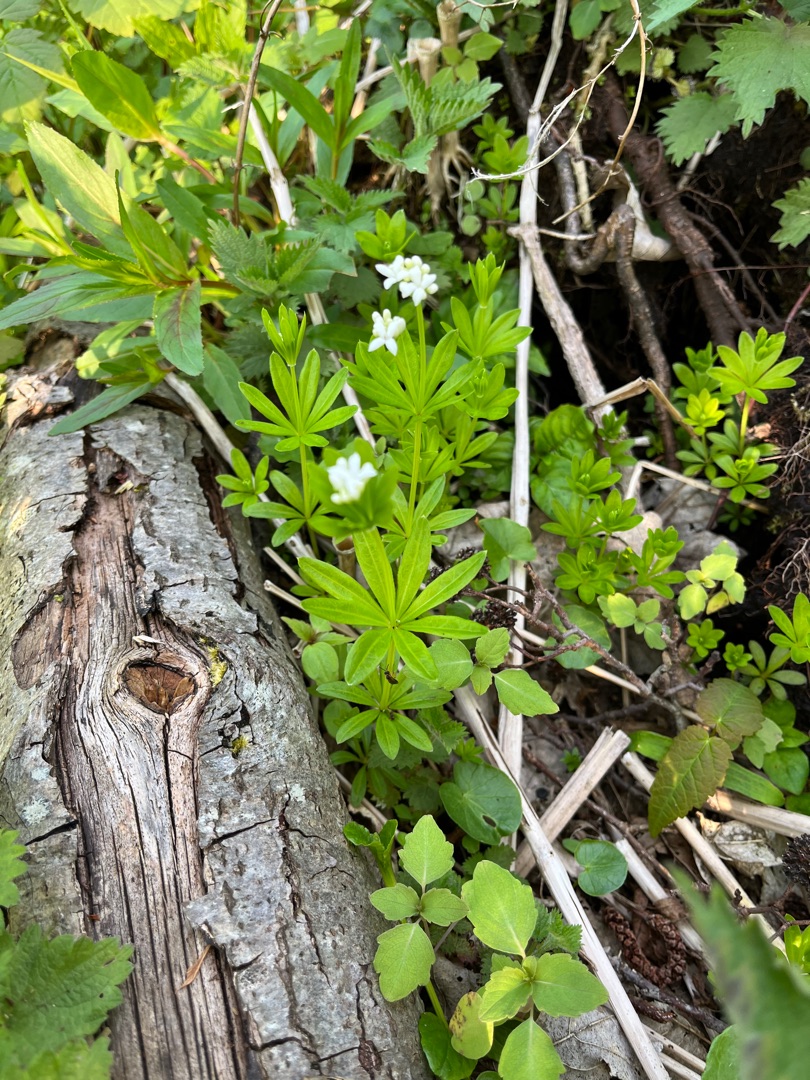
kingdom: Plantae
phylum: Tracheophyta
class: Magnoliopsida
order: Gentianales
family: Rubiaceae
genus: Galium
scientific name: Galium odoratum
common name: Skovmærke
